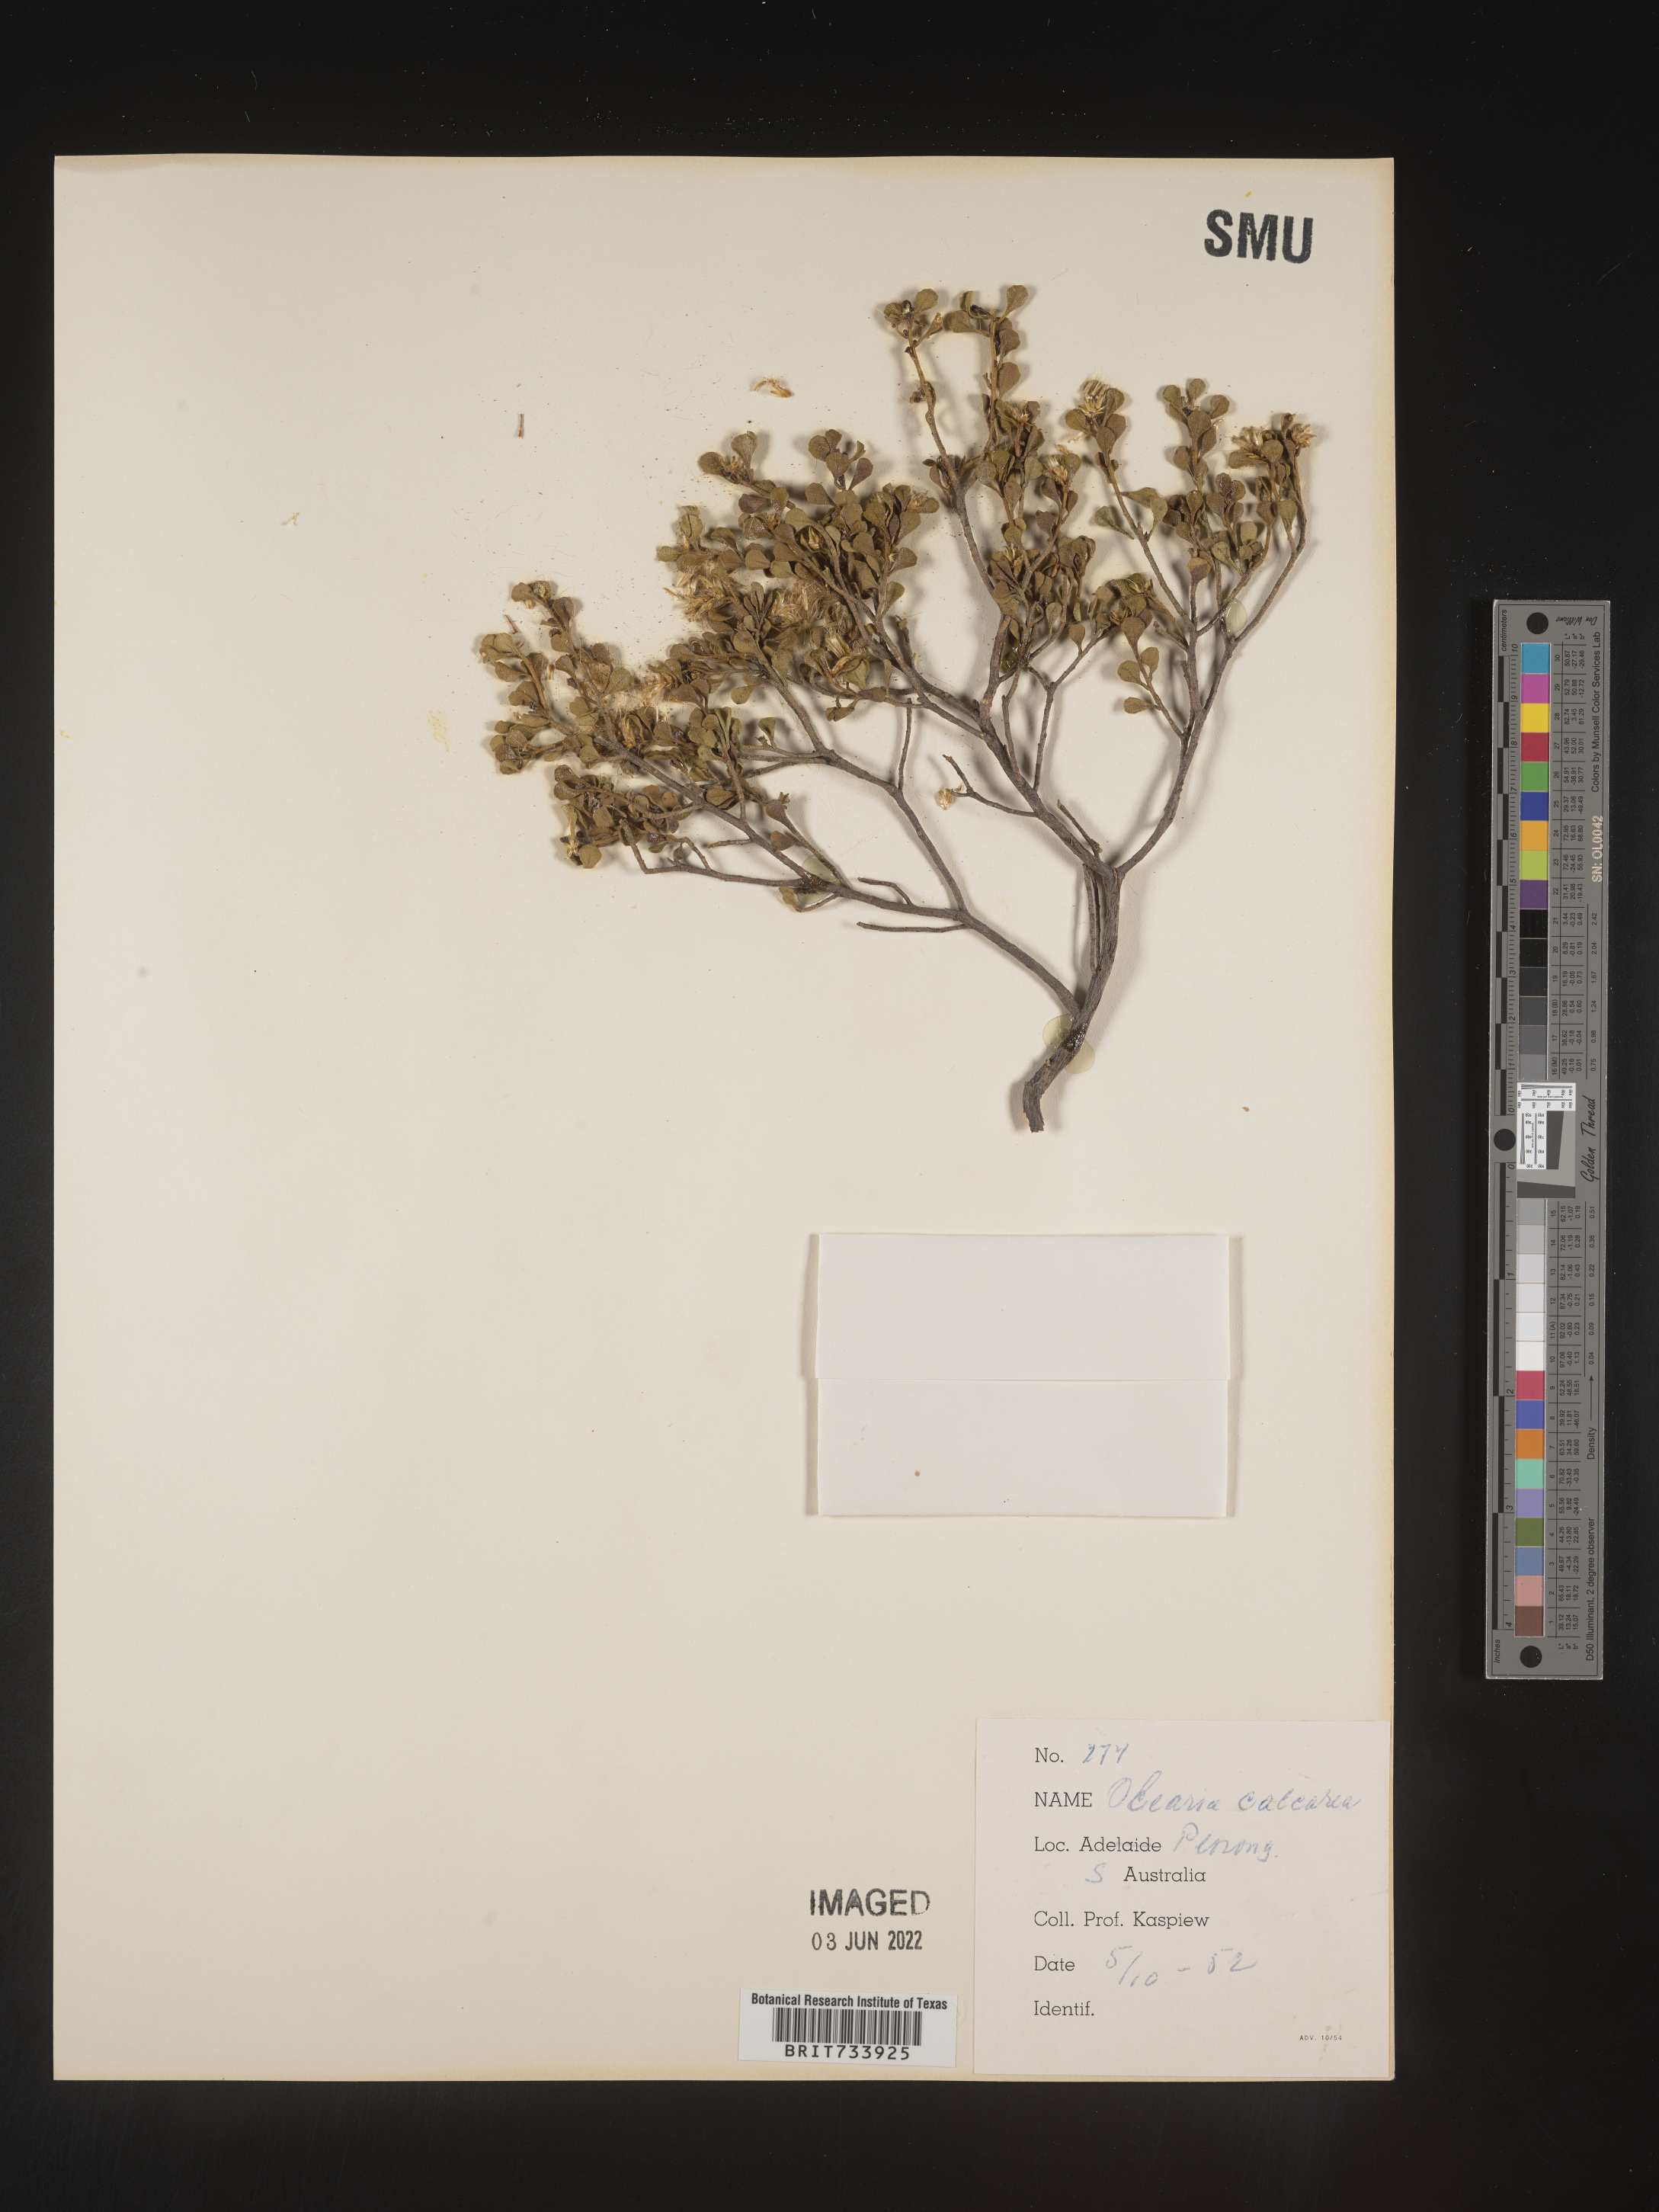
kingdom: Plantae
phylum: Tracheophyta
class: Magnoliopsida
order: Asterales
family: Asteraceae
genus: Olearia
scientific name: Olearia
